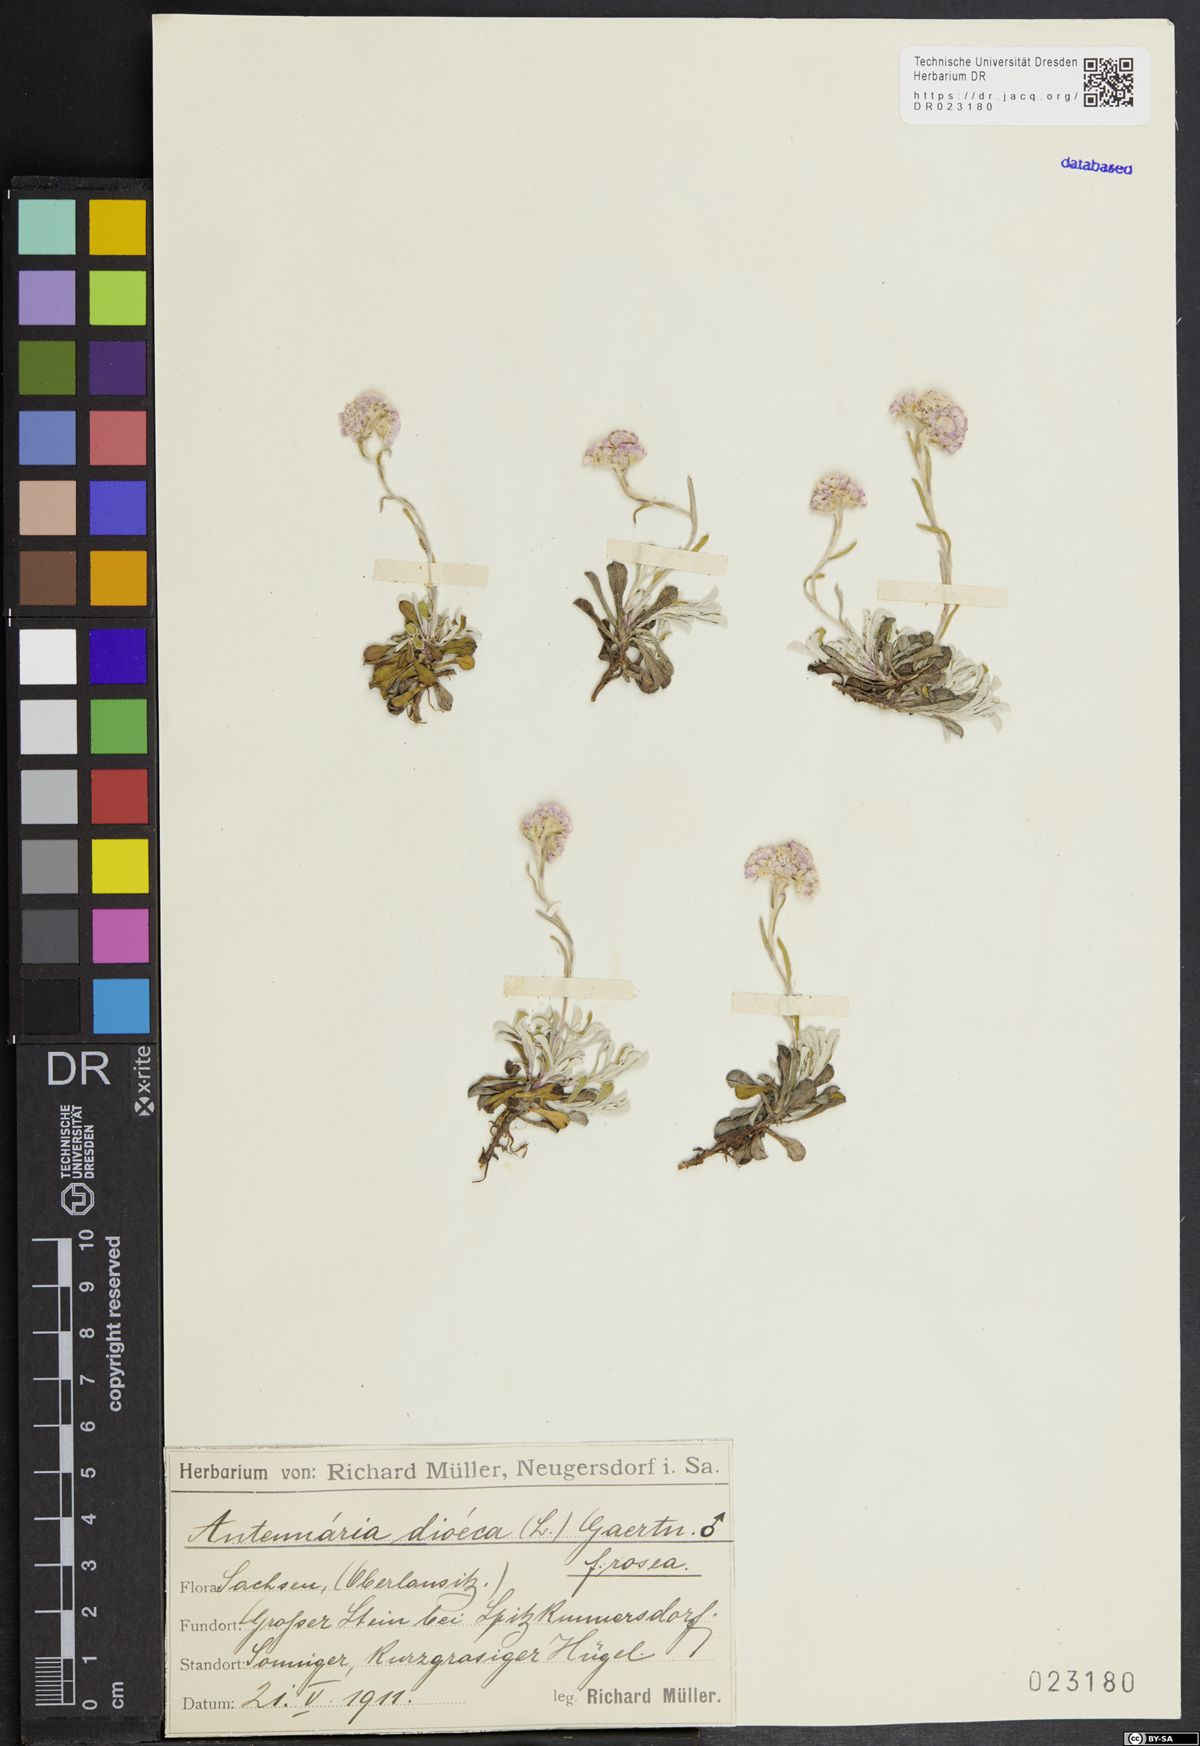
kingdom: Plantae
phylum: Tracheophyta
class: Magnoliopsida
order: Asterales
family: Asteraceae
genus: Antennaria
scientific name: Antennaria dioica
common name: Mountain everlasting
